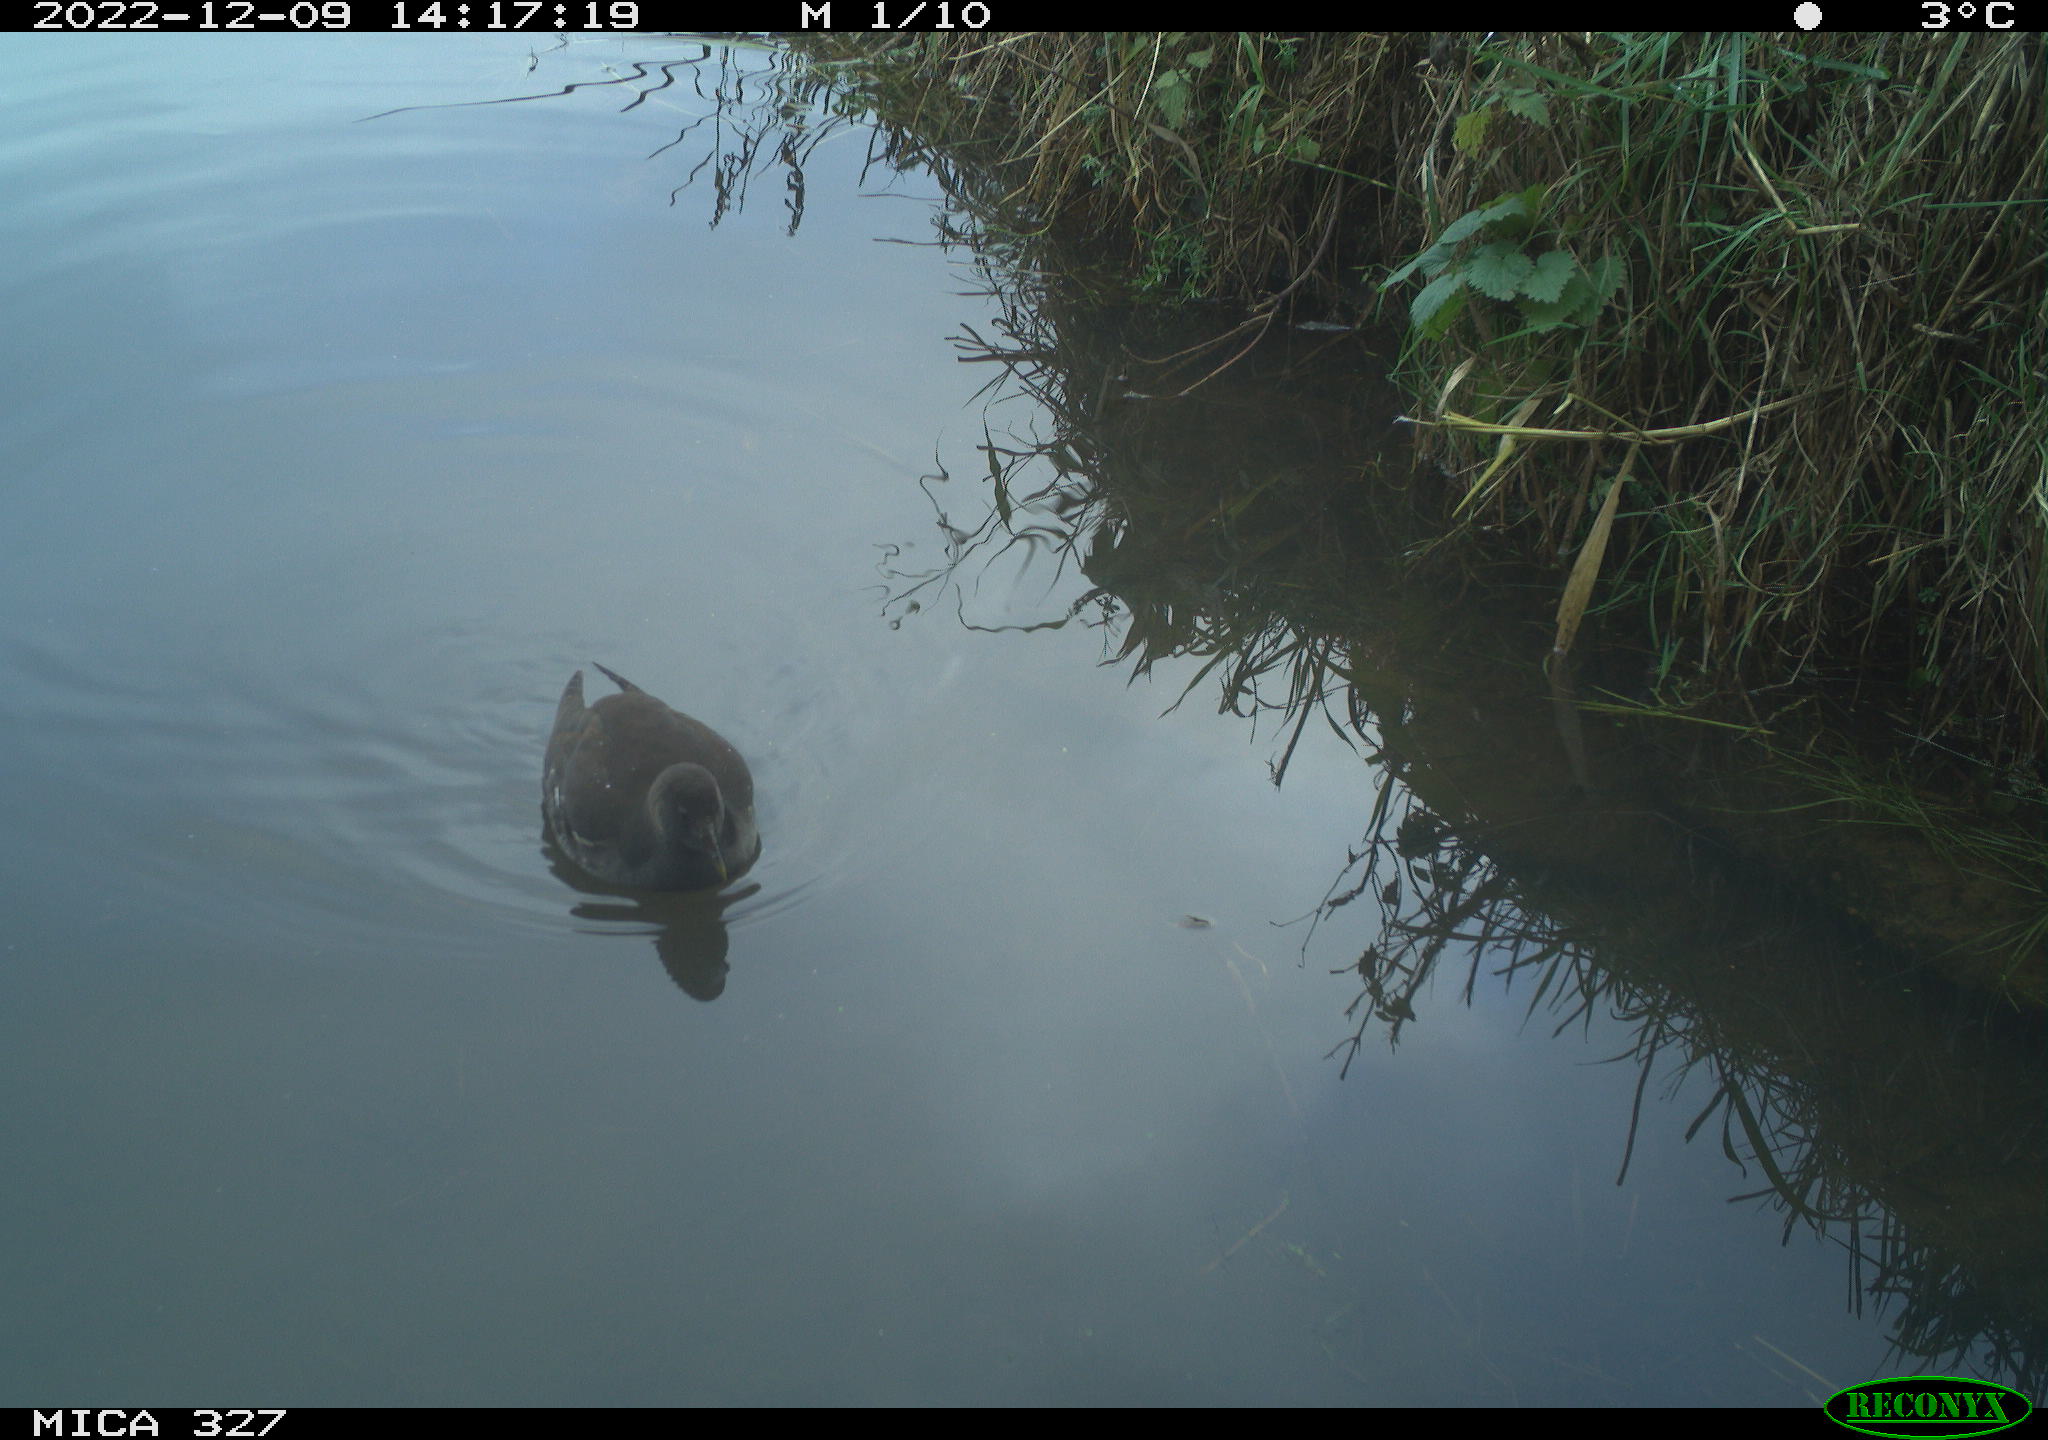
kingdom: Animalia
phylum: Chordata
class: Aves
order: Gruiformes
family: Rallidae
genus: Gallinula
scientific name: Gallinula chloropus
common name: Common moorhen
